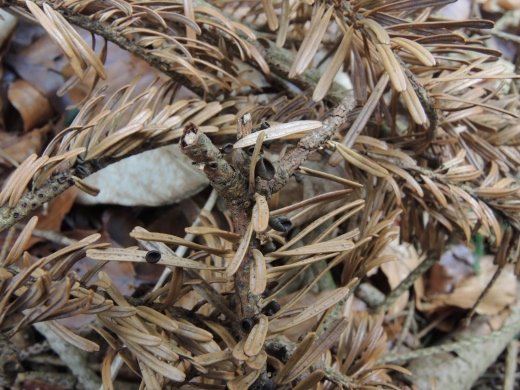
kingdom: Fungi
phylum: Ascomycota
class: Leotiomycetes
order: Helotiales
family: Rutstroemiaceae
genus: Rutstroemia
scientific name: Rutstroemia elatina
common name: ædelgran-brunskive
